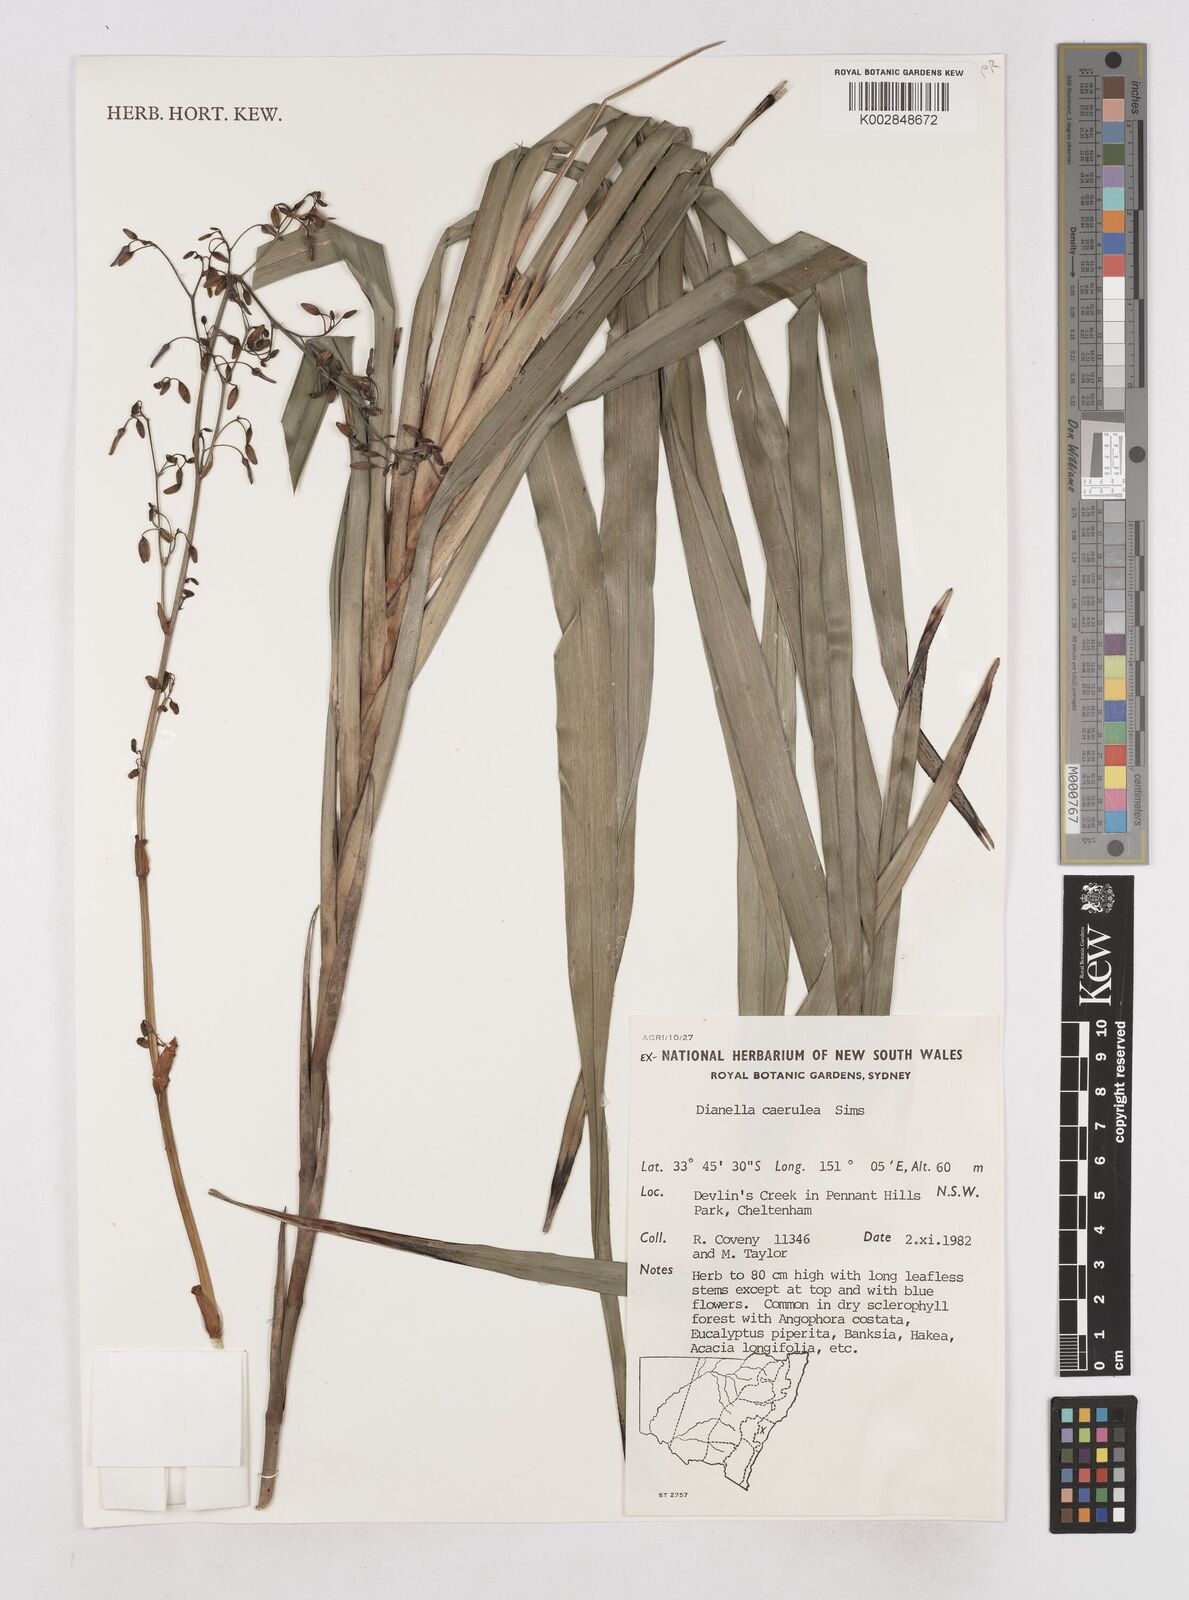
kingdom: Plantae
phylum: Tracheophyta
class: Liliopsida
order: Asparagales
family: Asphodelaceae
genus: Dianella
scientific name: Dianella caerulea
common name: Blue flax-lily
